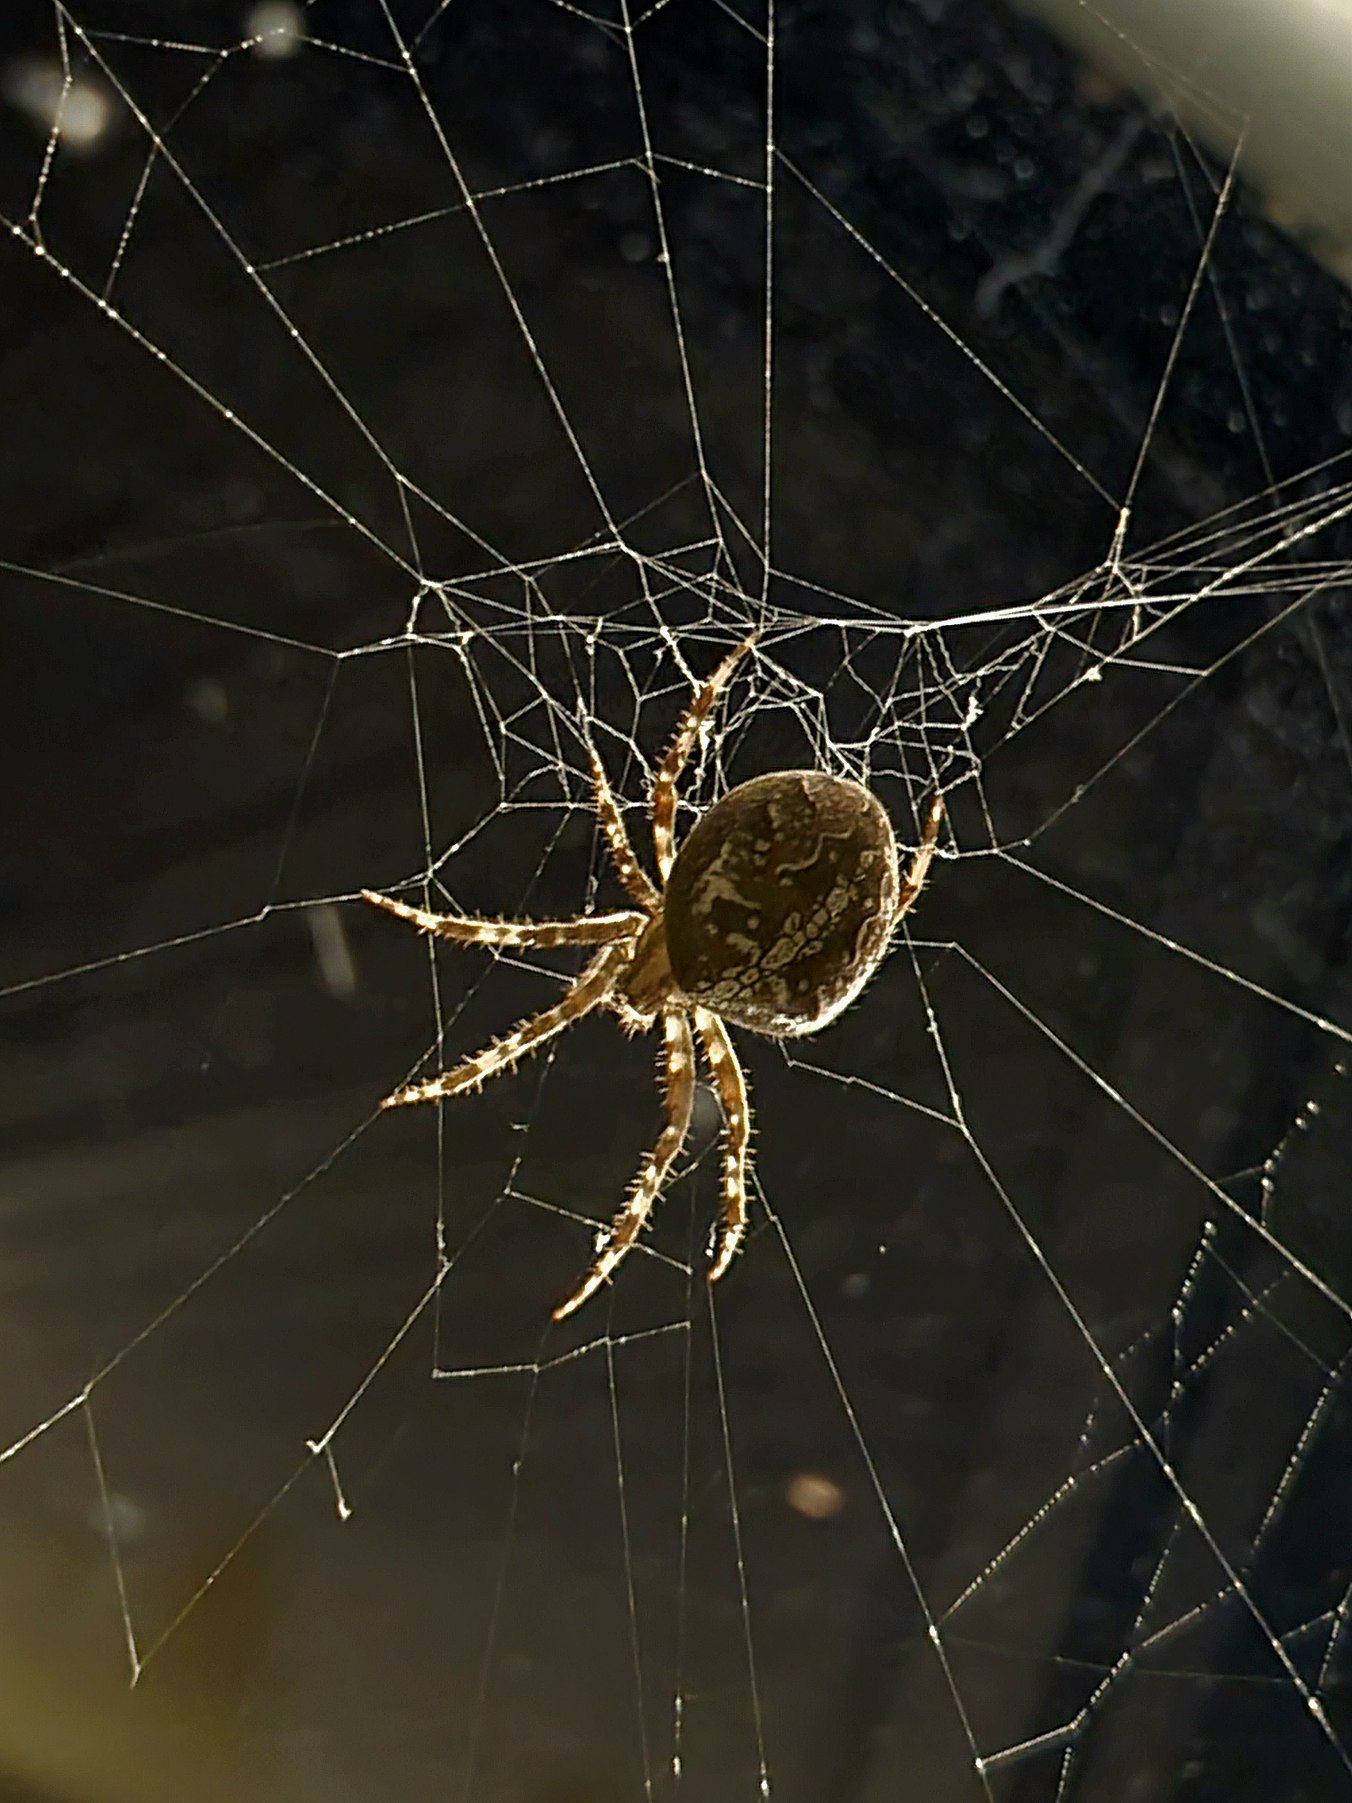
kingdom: Animalia
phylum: Arthropoda
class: Arachnida
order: Araneae
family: Araneidae
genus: Araneus
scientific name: Araneus diadematus
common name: Korsedderkop
